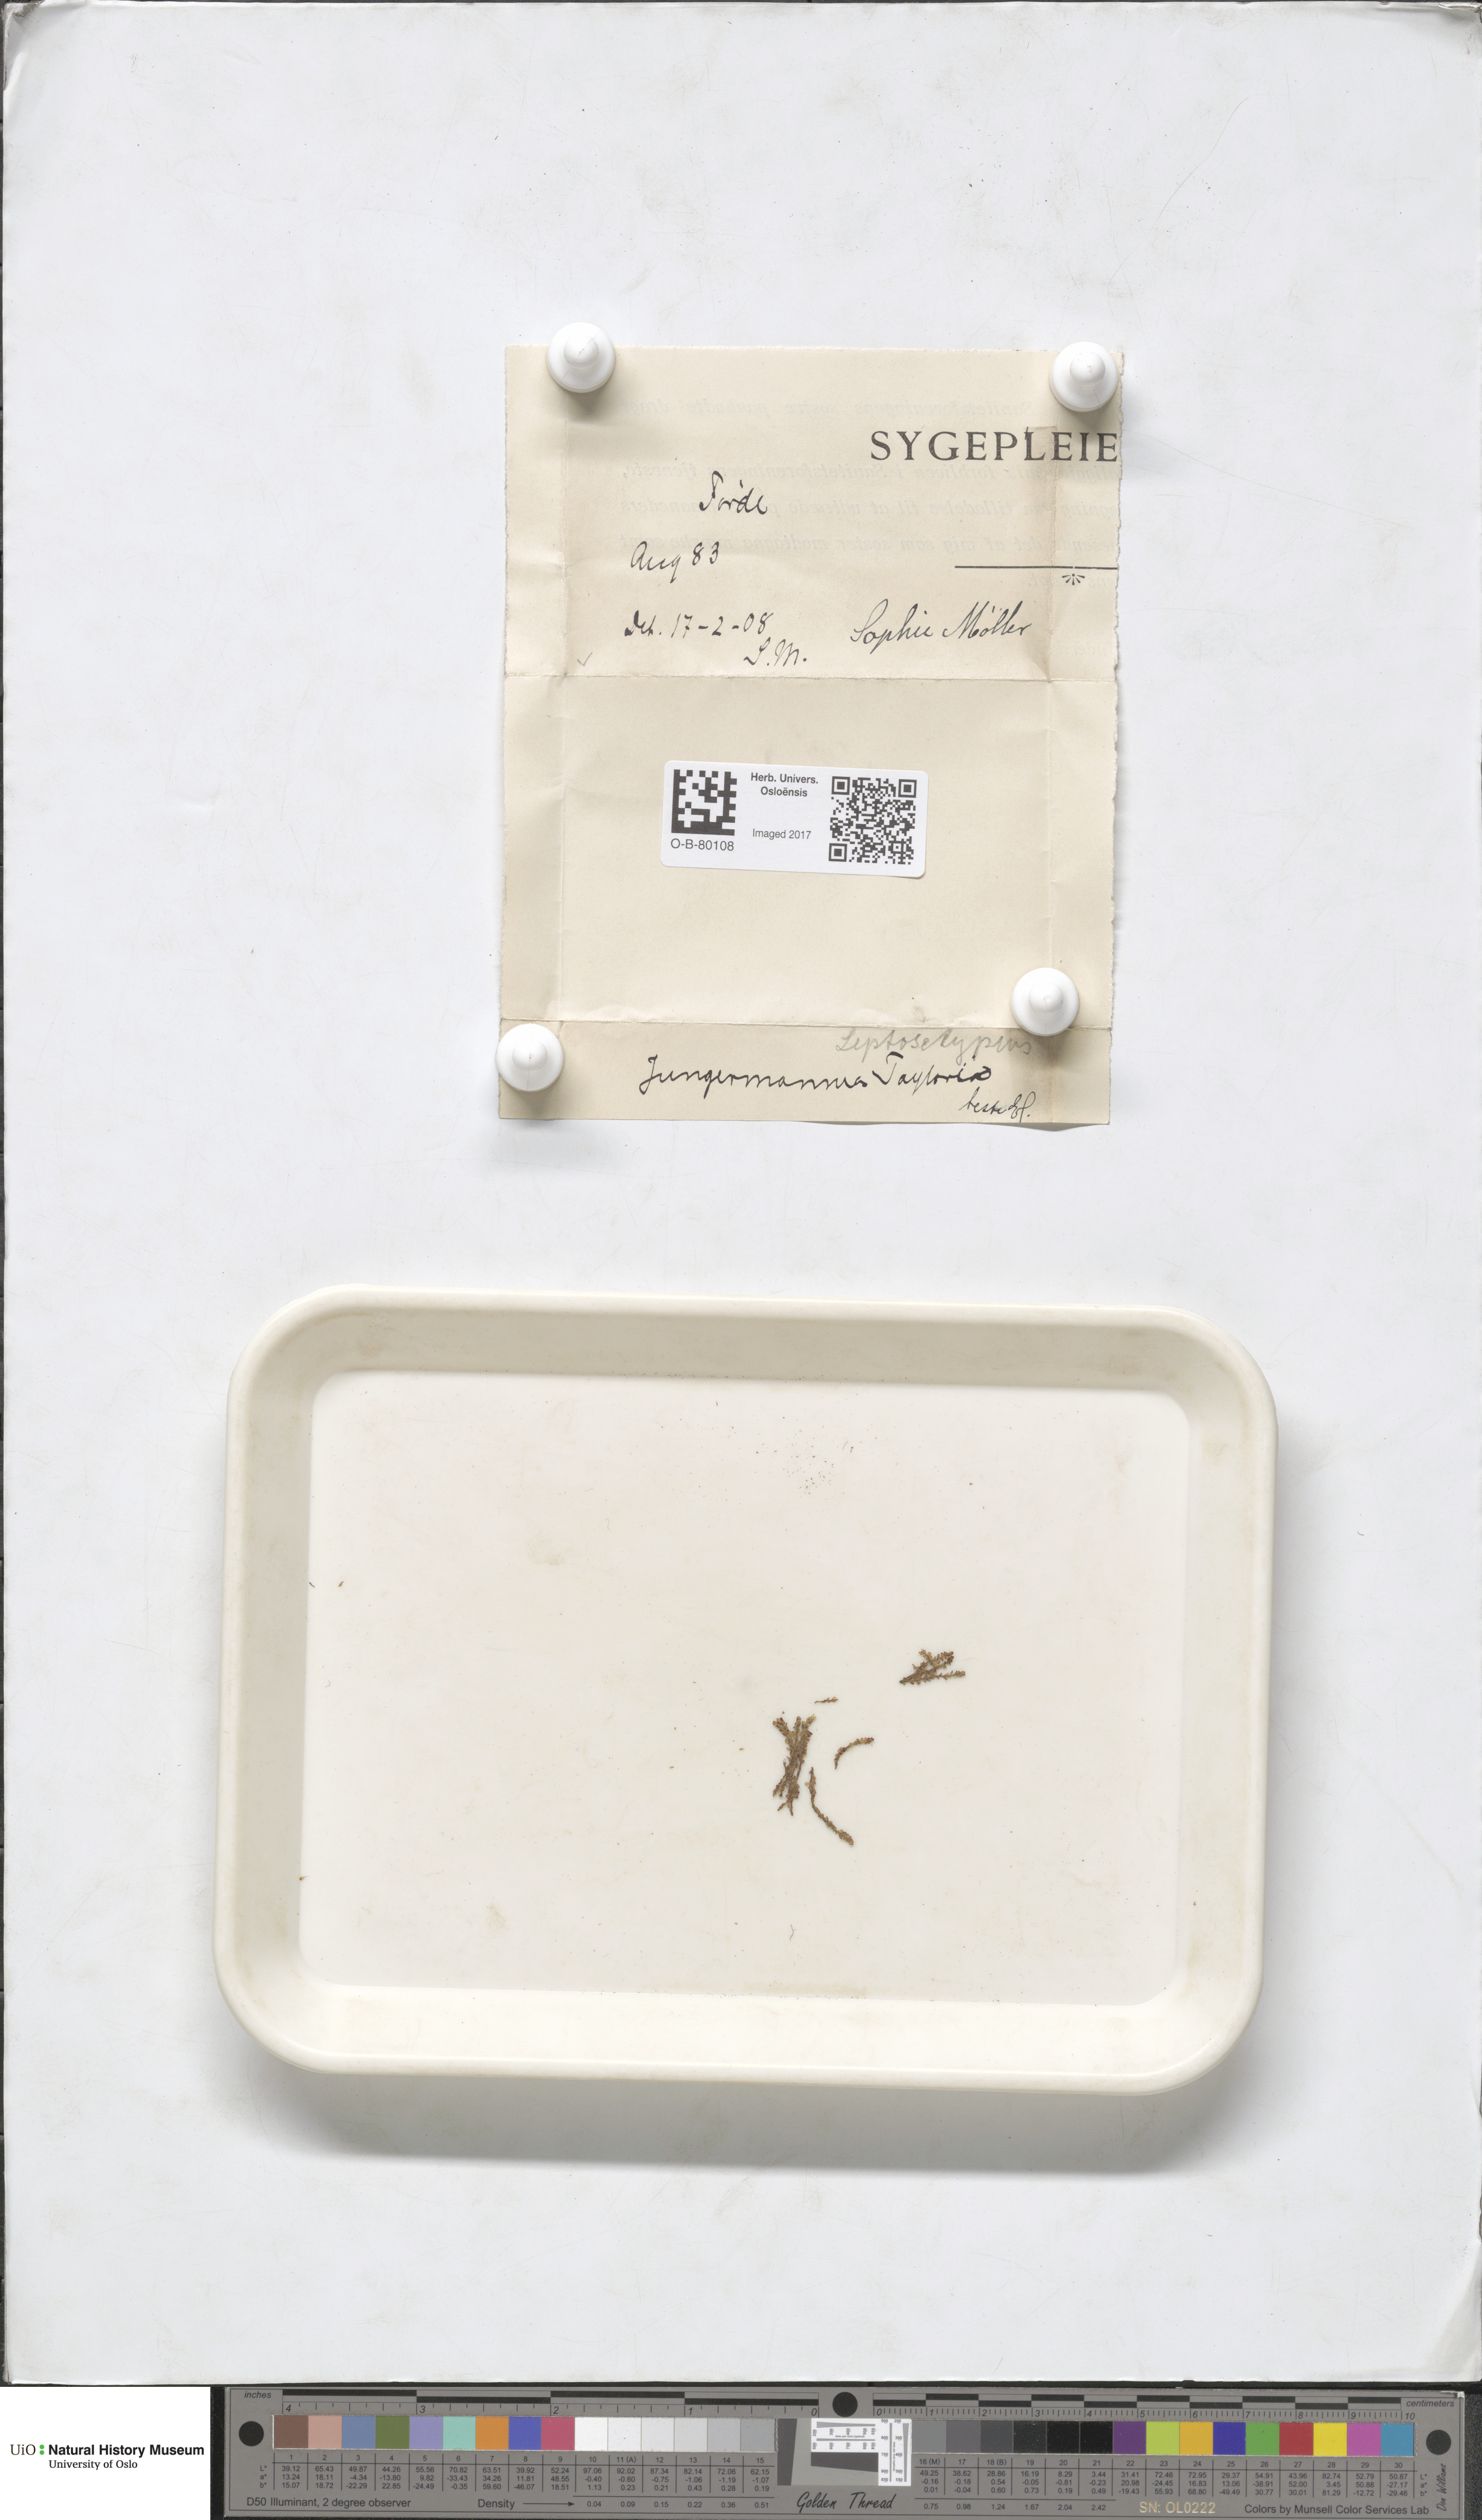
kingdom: Plantae
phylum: Marchantiophyta
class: Jungermanniopsida
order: Jungermanniales
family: Myliaceae
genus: Mylia
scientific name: Mylia taylorii
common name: Taylor s flapwort
